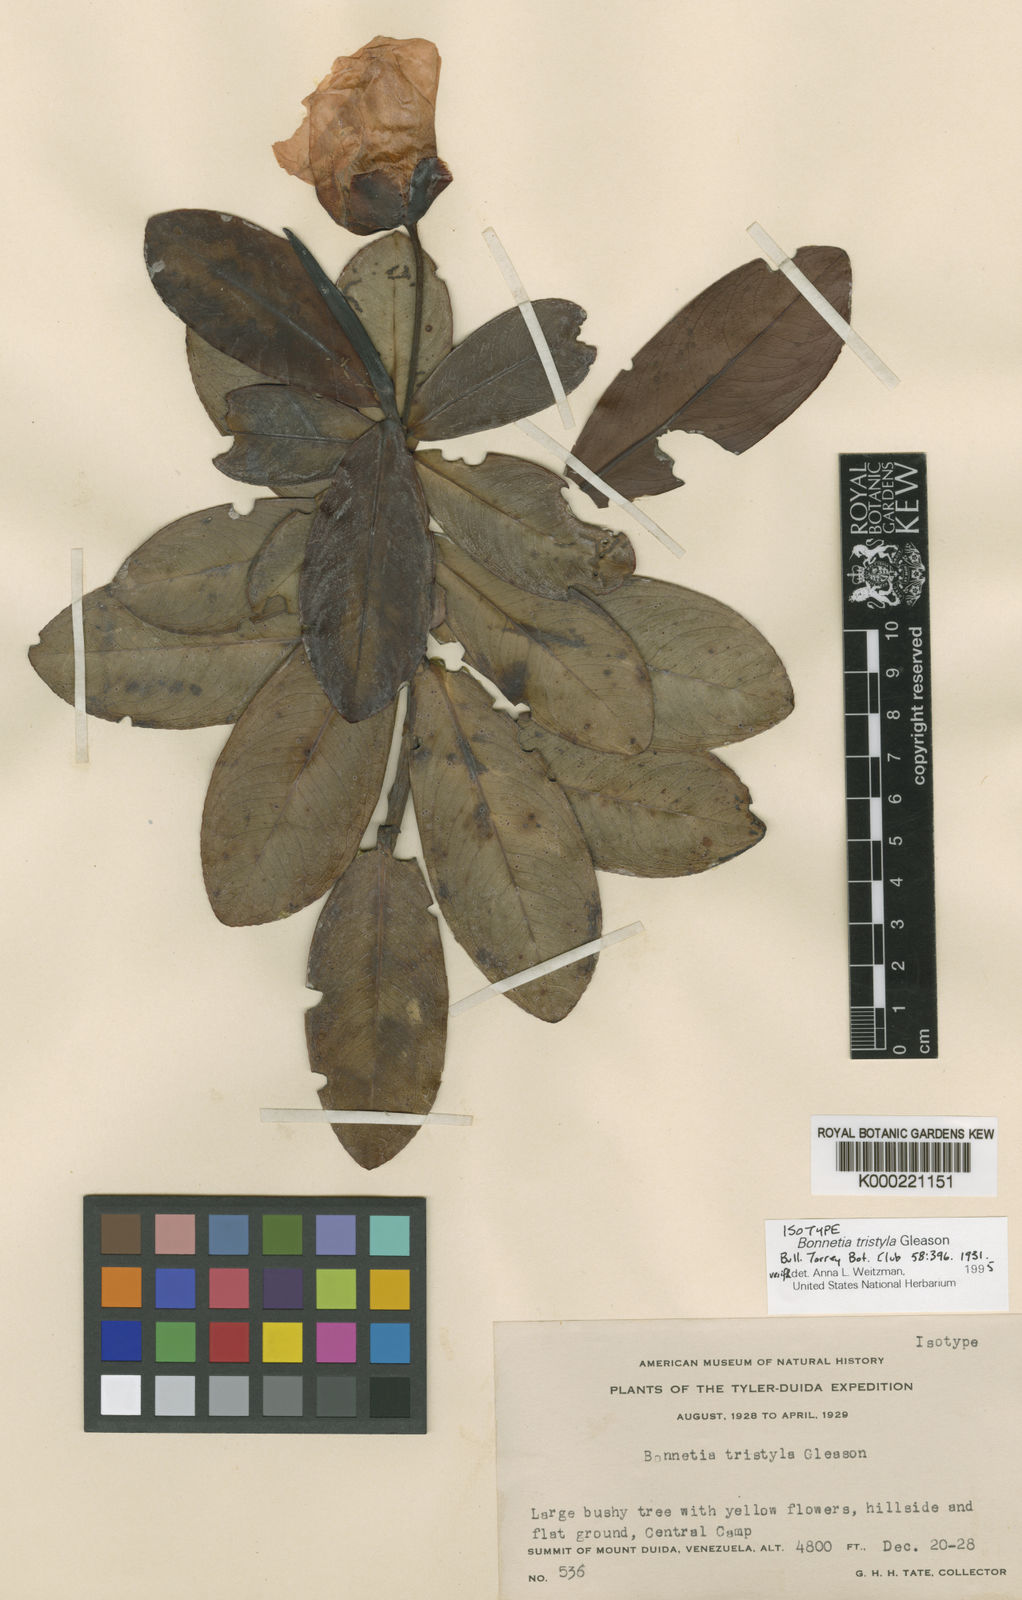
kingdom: Plantae
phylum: Tracheophyta
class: Magnoliopsida
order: Malpighiales
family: Bonnetiaceae
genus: Bonnetia
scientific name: Bonnetia tristyla
